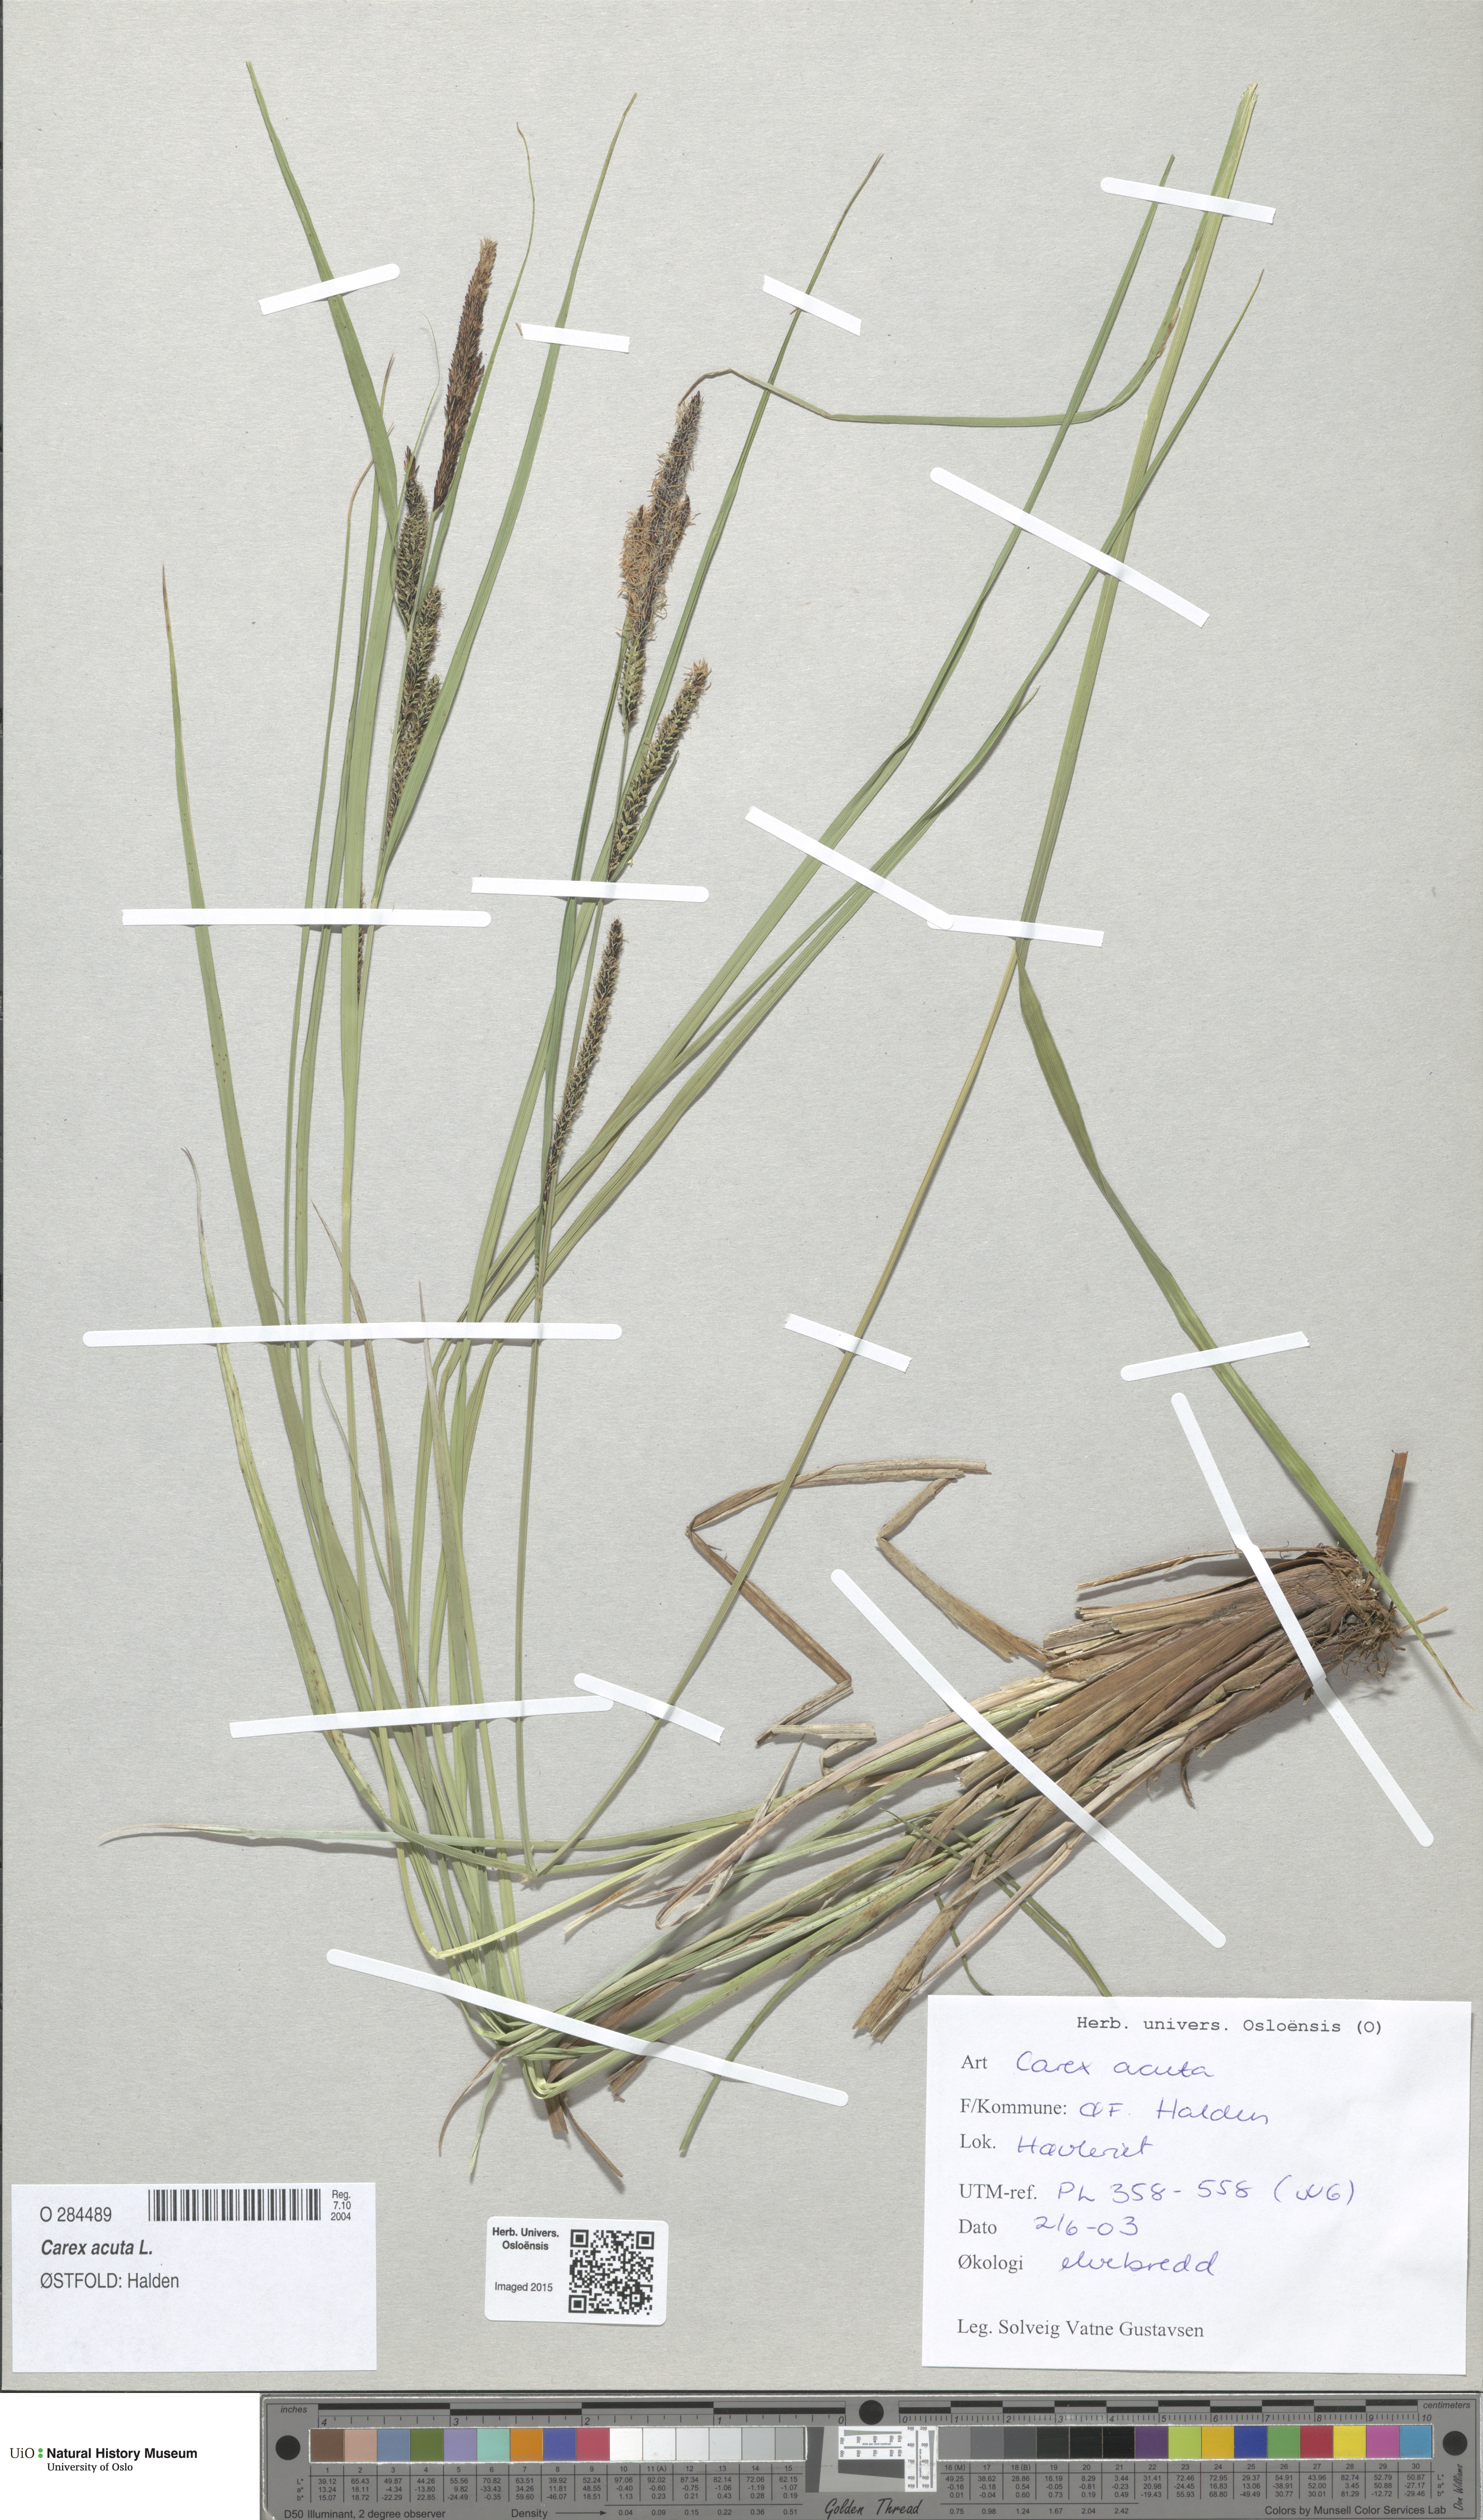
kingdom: Plantae
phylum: Tracheophyta
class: Liliopsida
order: Poales
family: Cyperaceae
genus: Carex
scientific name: Carex acuta
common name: Slender tufted-sedge
